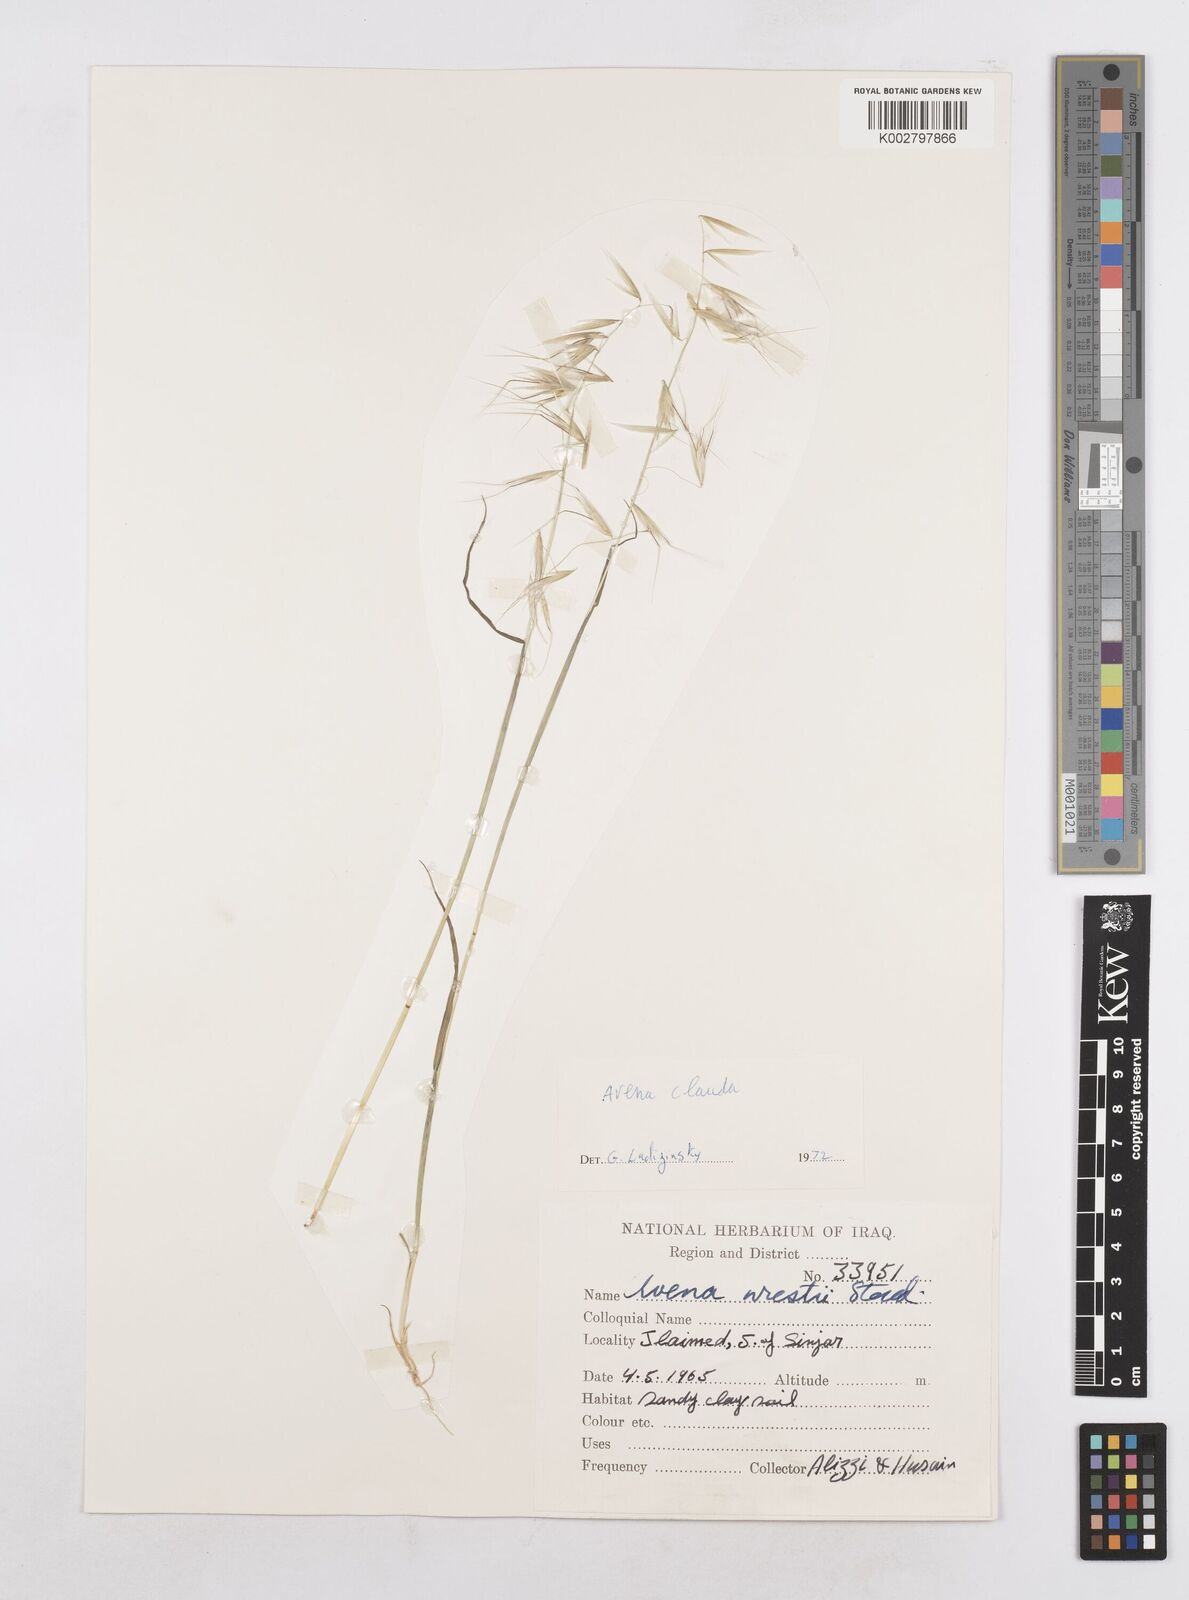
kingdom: Plantae
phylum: Tracheophyta
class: Liliopsida
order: Poales
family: Poaceae
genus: Avena
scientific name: Avena clauda
